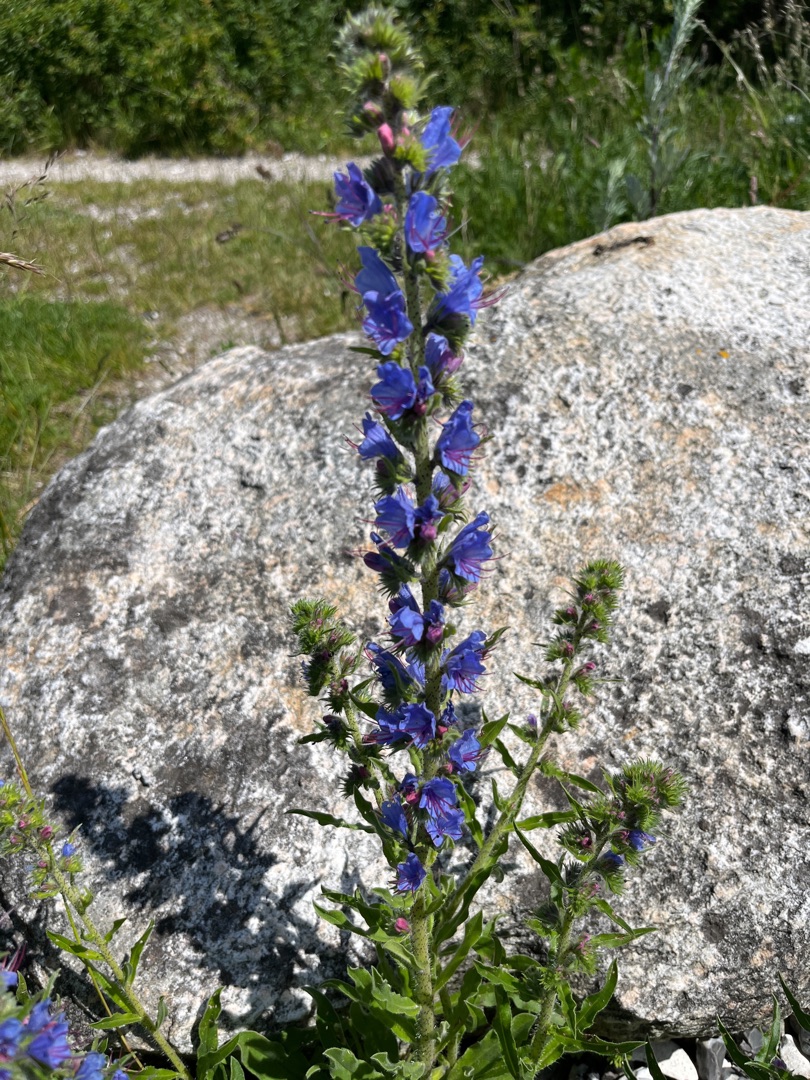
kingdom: Plantae
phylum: Tracheophyta
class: Magnoliopsida
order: Boraginales
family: Boraginaceae
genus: Echium
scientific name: Echium vulgare
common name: Slangehoved
